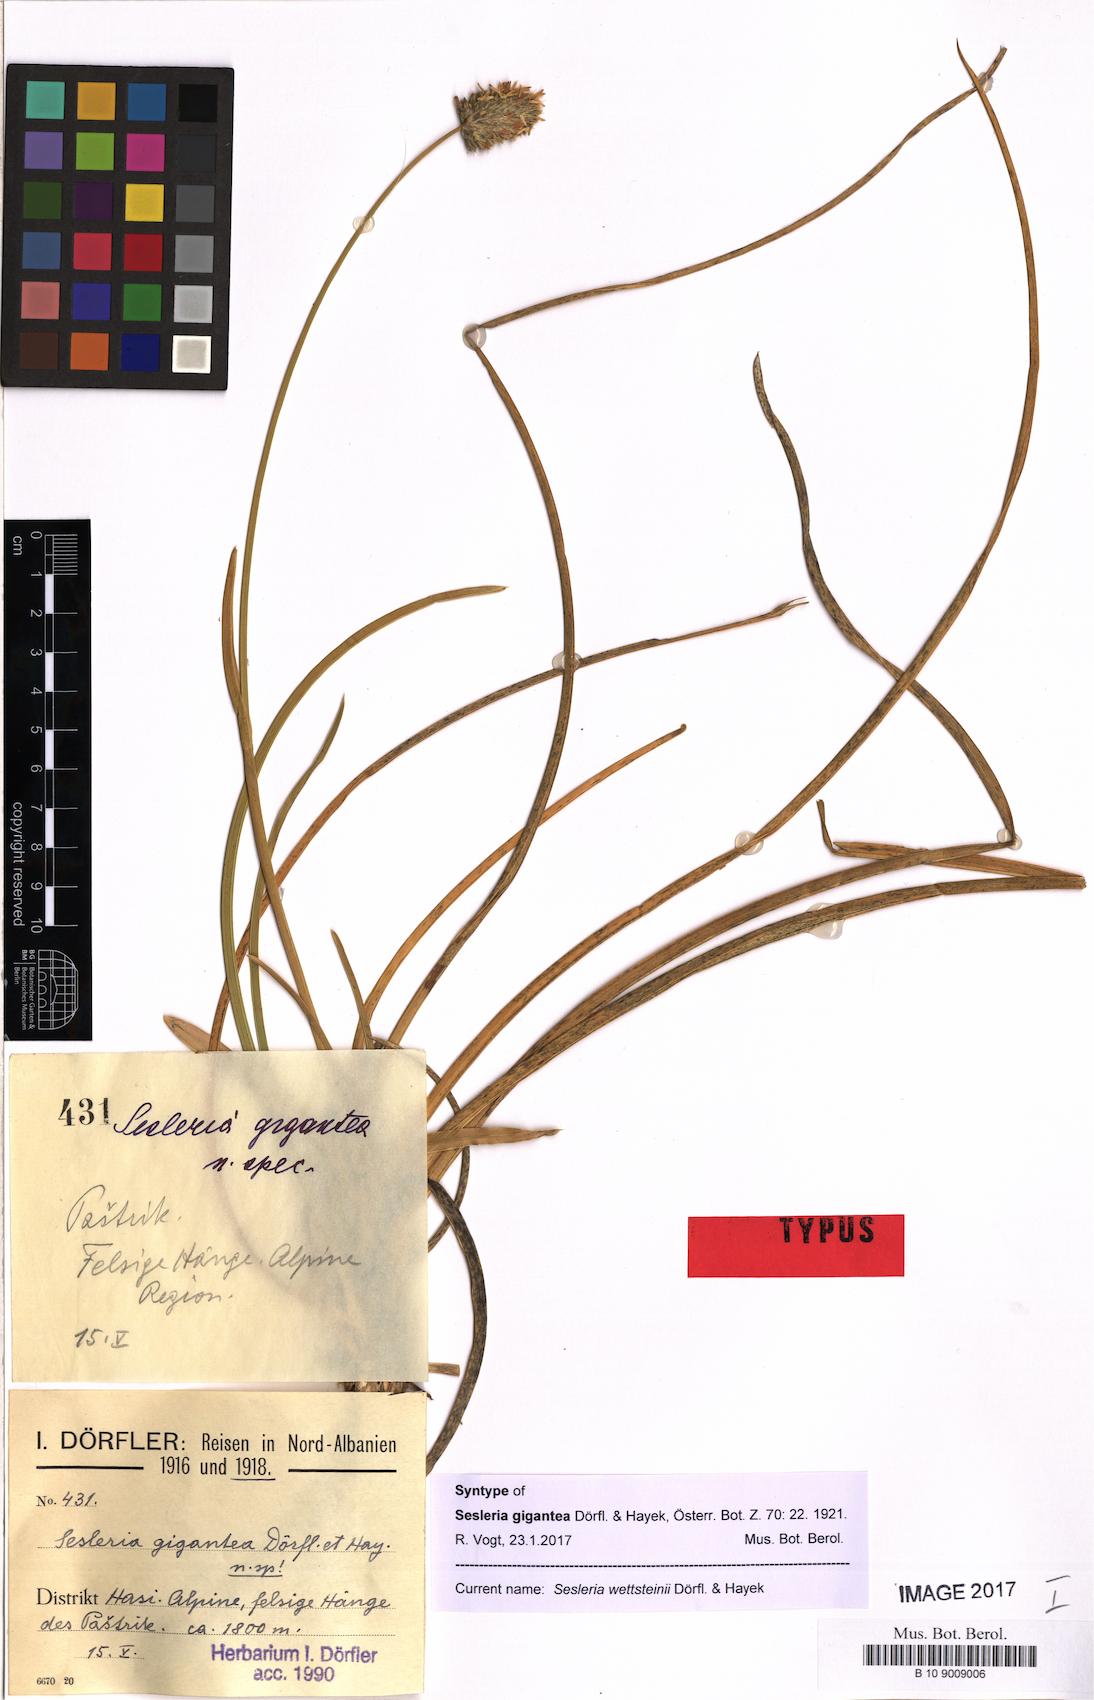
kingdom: Plantae
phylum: Tracheophyta
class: Liliopsida
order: Poales
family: Poaceae
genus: Sesleria
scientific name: Sesleria wettsteinii
